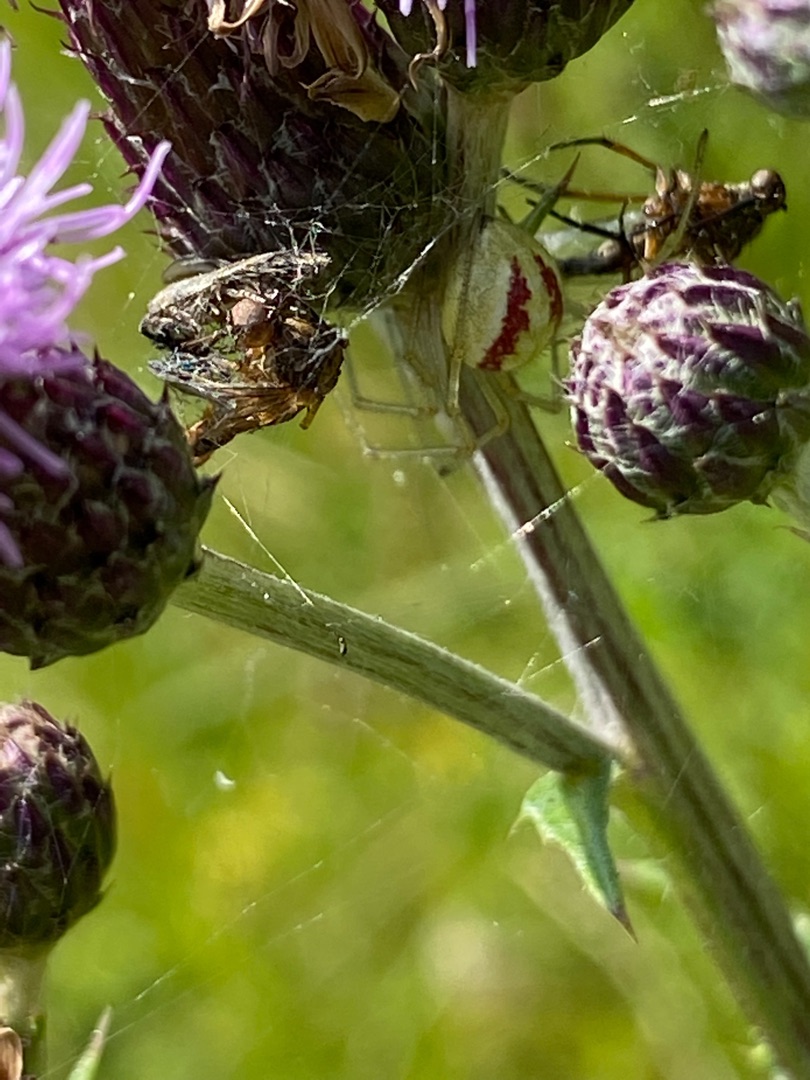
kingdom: Animalia
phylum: Arthropoda
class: Arachnida
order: Araneae
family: Theridiidae
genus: Enoplognatha
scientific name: Enoplognatha
